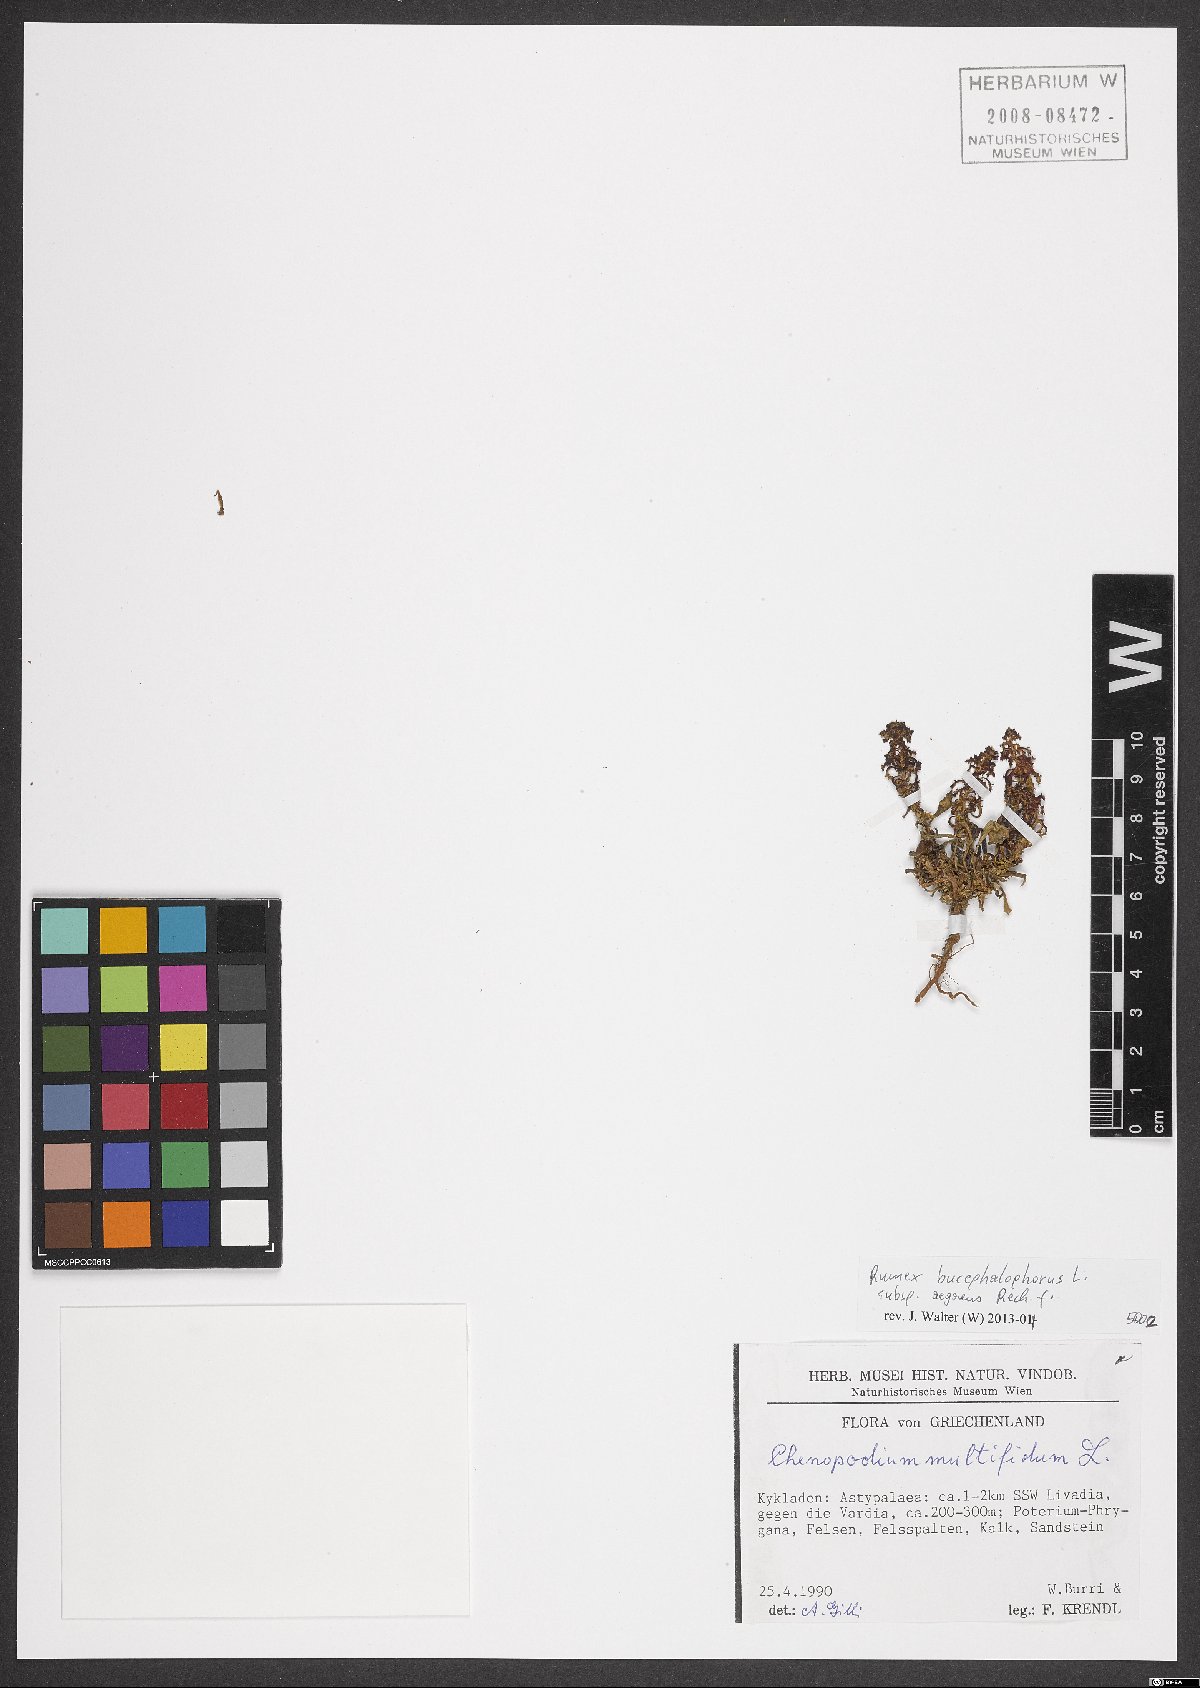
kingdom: Plantae
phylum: Tracheophyta
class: Magnoliopsida
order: Caryophyllales
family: Polygonaceae
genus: Rumex
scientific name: Rumex bucephalophorus
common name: Red dock
